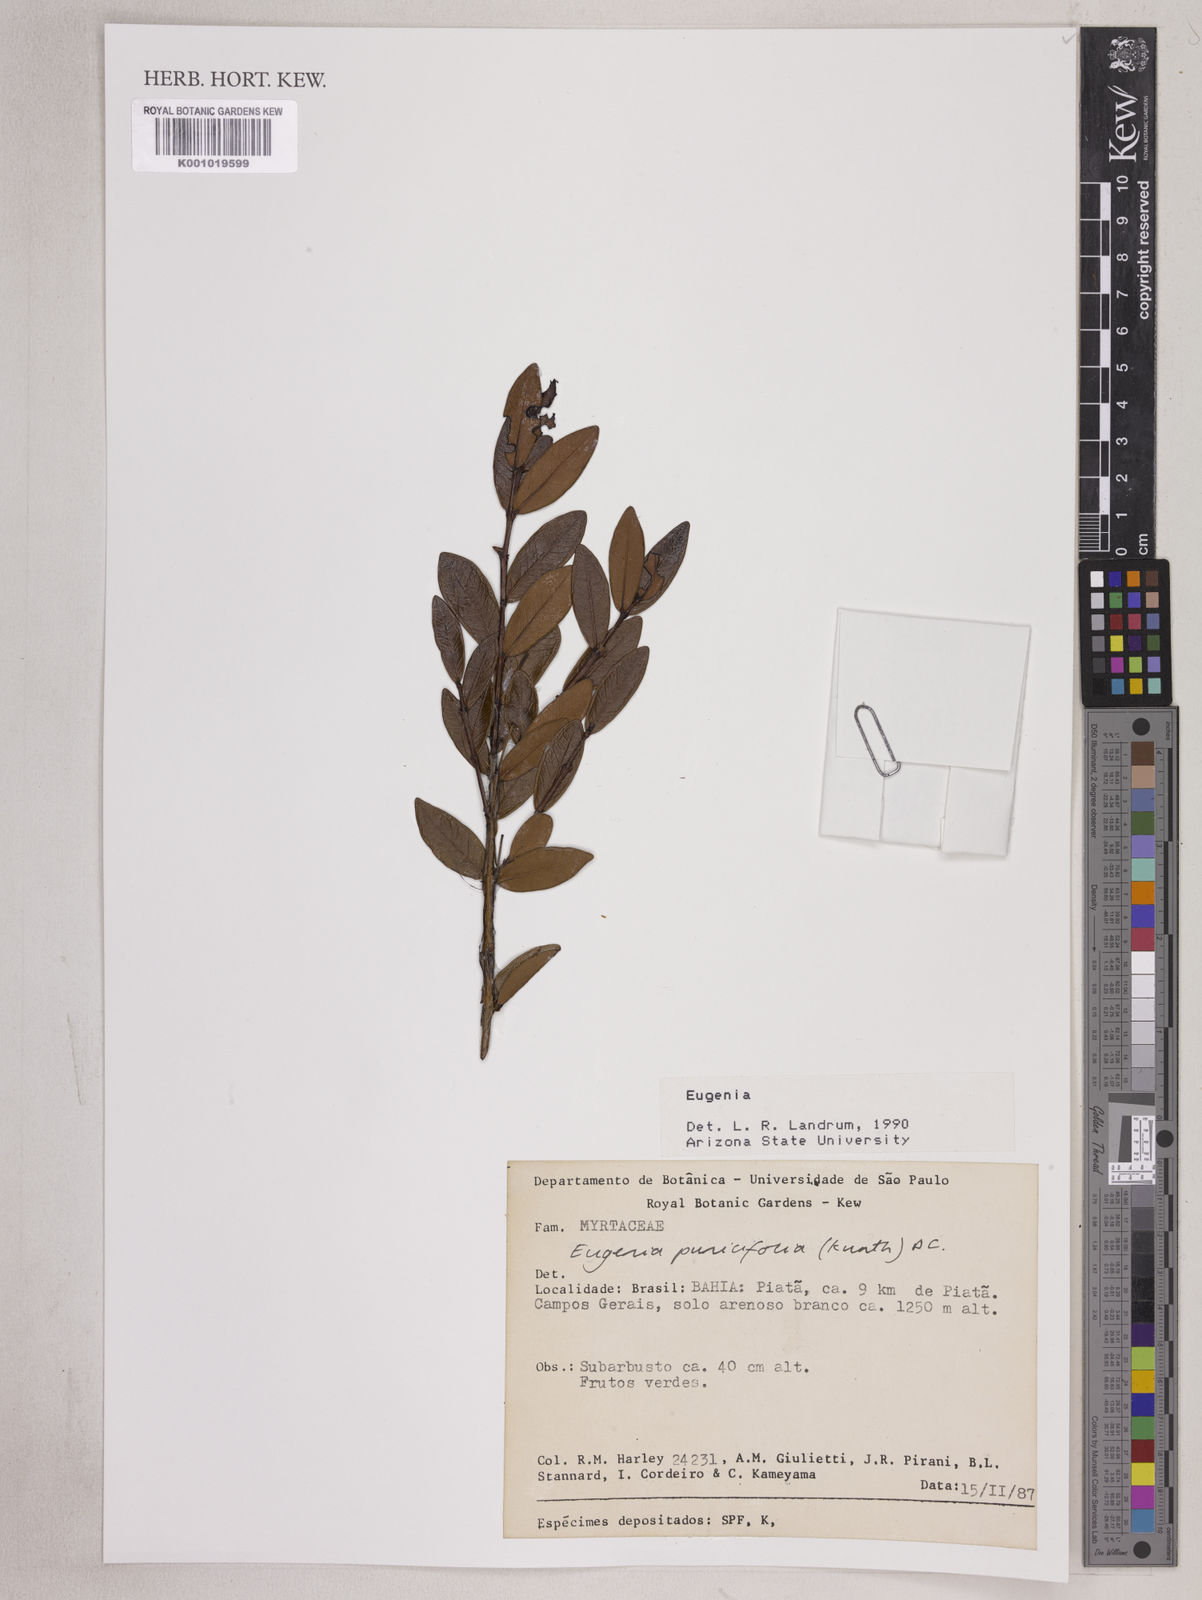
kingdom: Plantae
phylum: Tracheophyta
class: Magnoliopsida
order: Myrtales
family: Myrtaceae
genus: Eugenia
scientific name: Eugenia punicifolia
